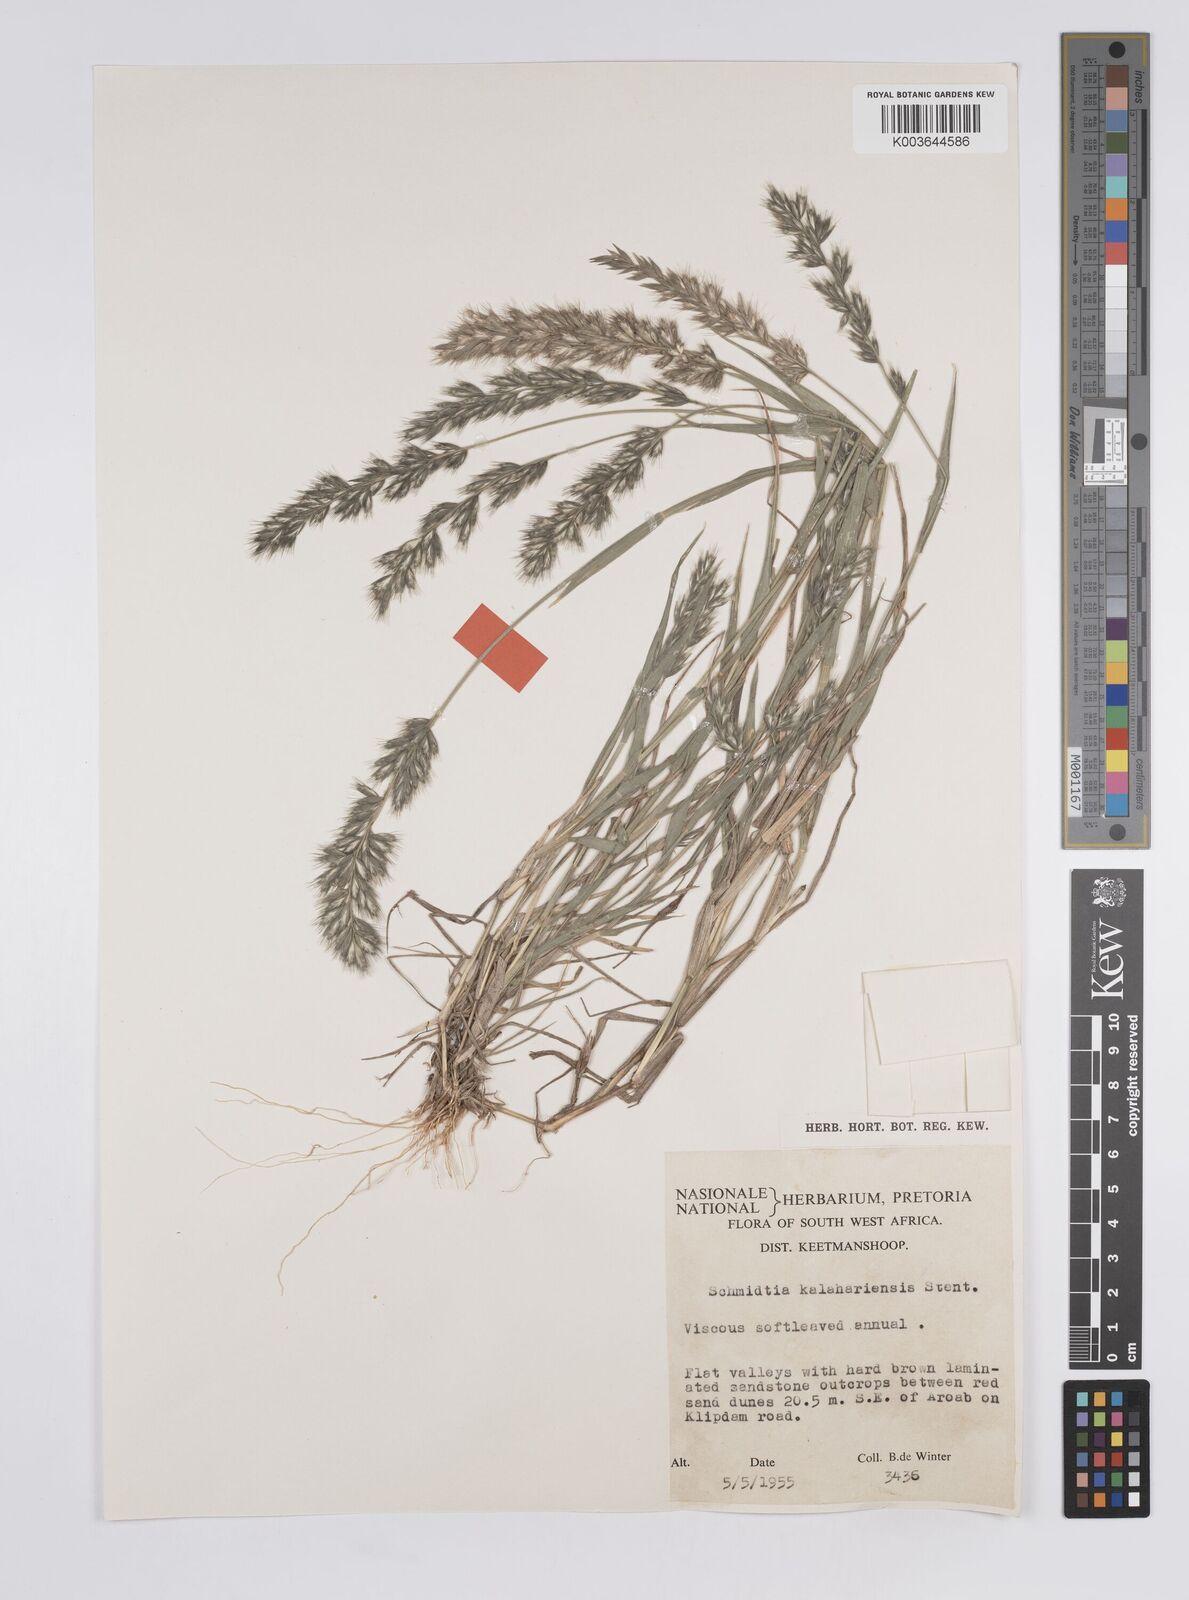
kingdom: Plantae
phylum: Tracheophyta
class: Liliopsida
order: Poales
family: Poaceae
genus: Schmidtia
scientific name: Schmidtia kalahariensis
